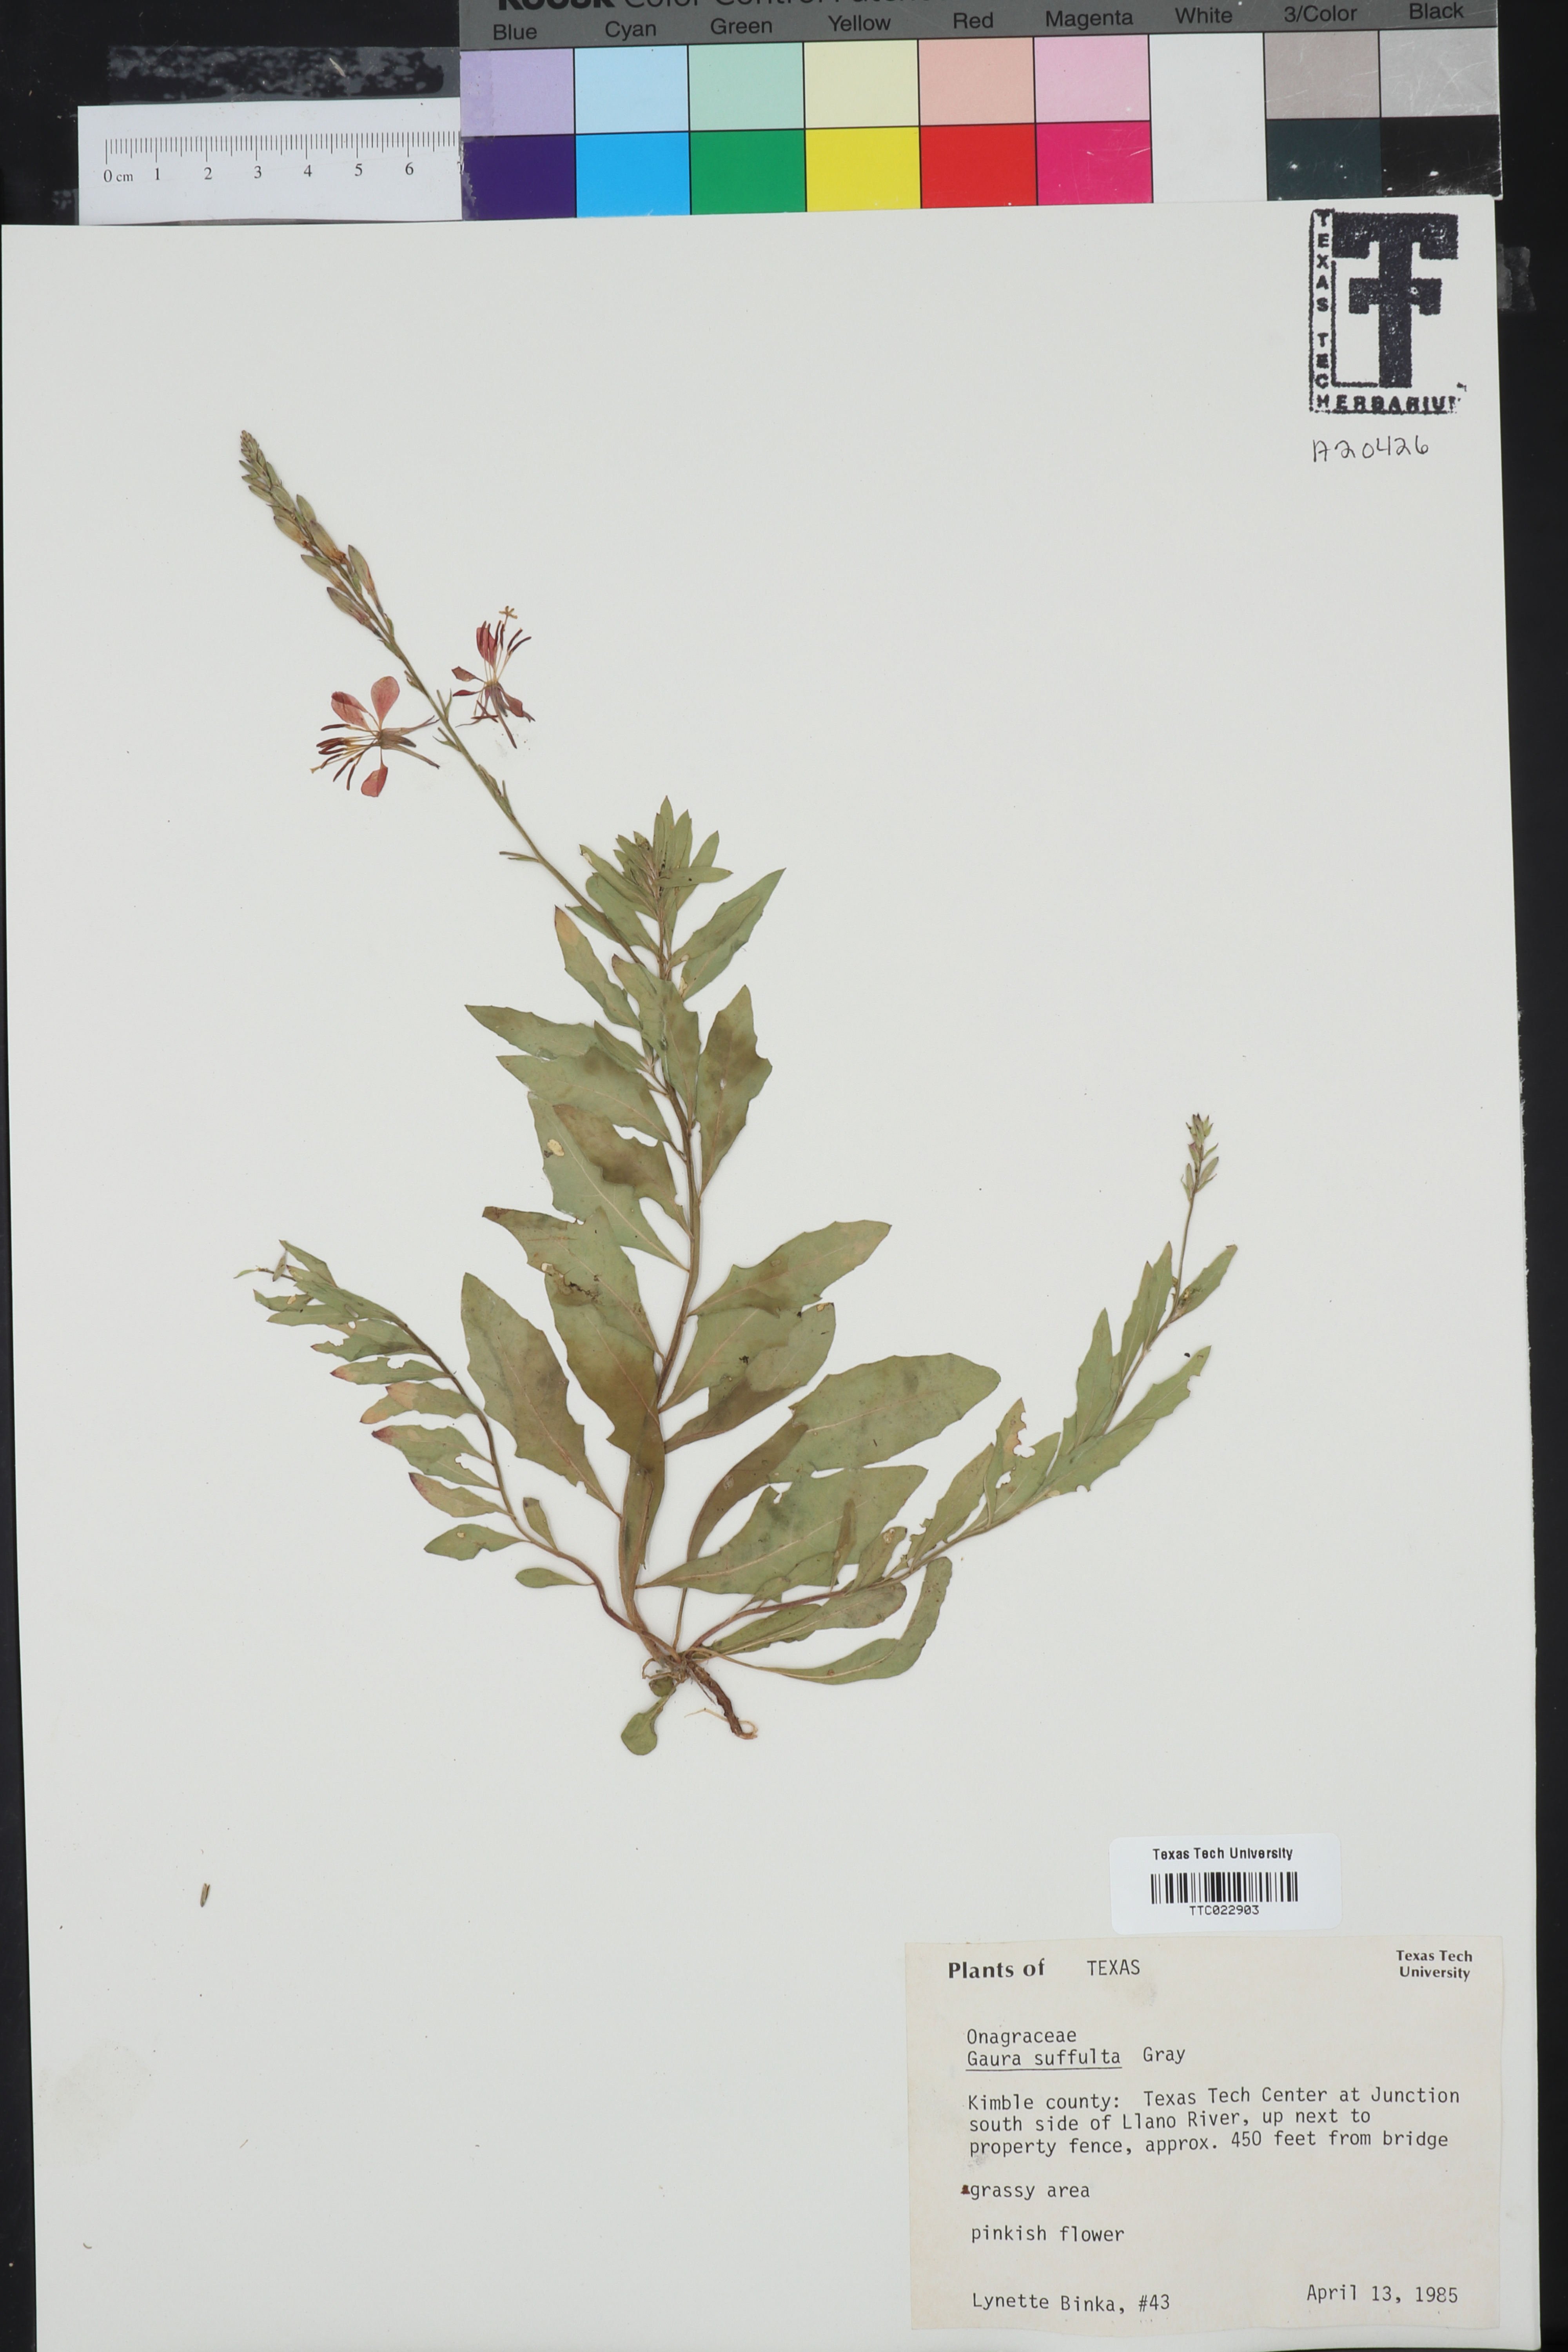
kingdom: Plantae
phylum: Tracheophyta
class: Magnoliopsida
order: Myrtales
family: Onagraceae
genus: Oenothera
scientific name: Oenothera Gaura suffulta
